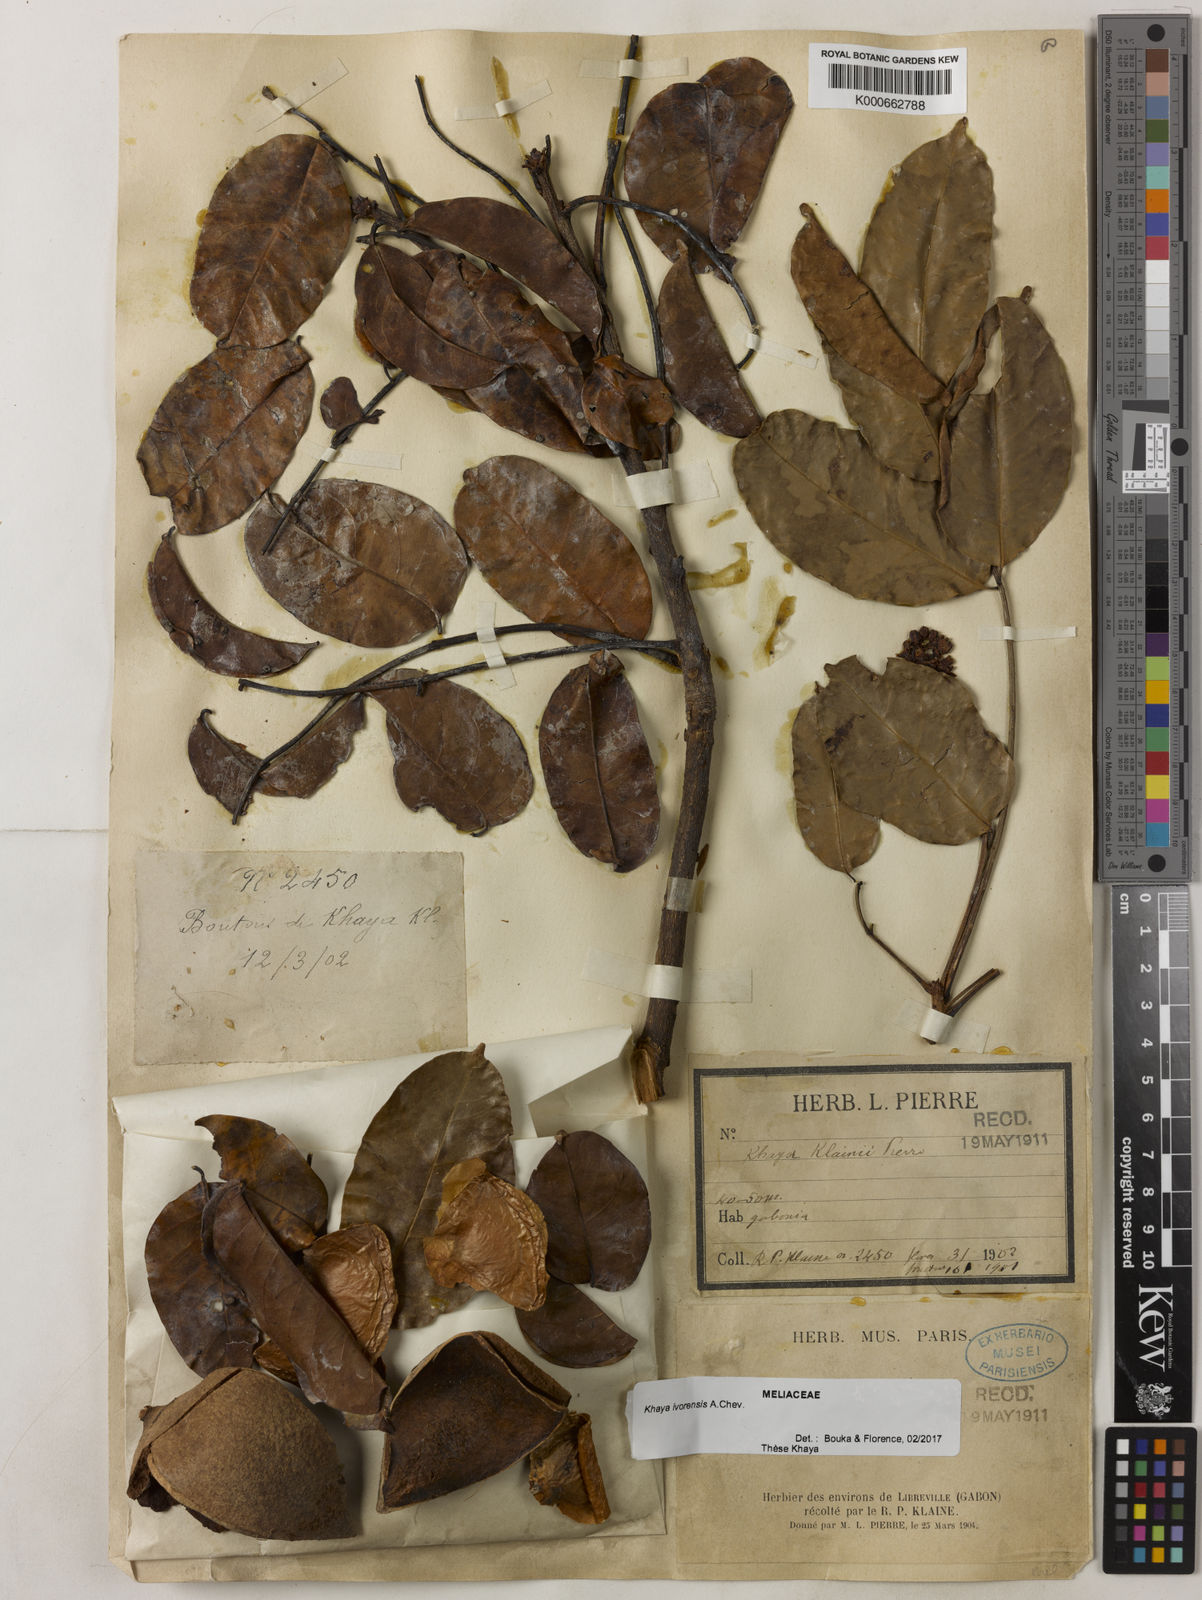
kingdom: Plantae
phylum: Tracheophyta
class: Magnoliopsida
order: Sapindales
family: Meliaceae
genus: Khaya
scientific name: Khaya ivorensis
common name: African mahogany
